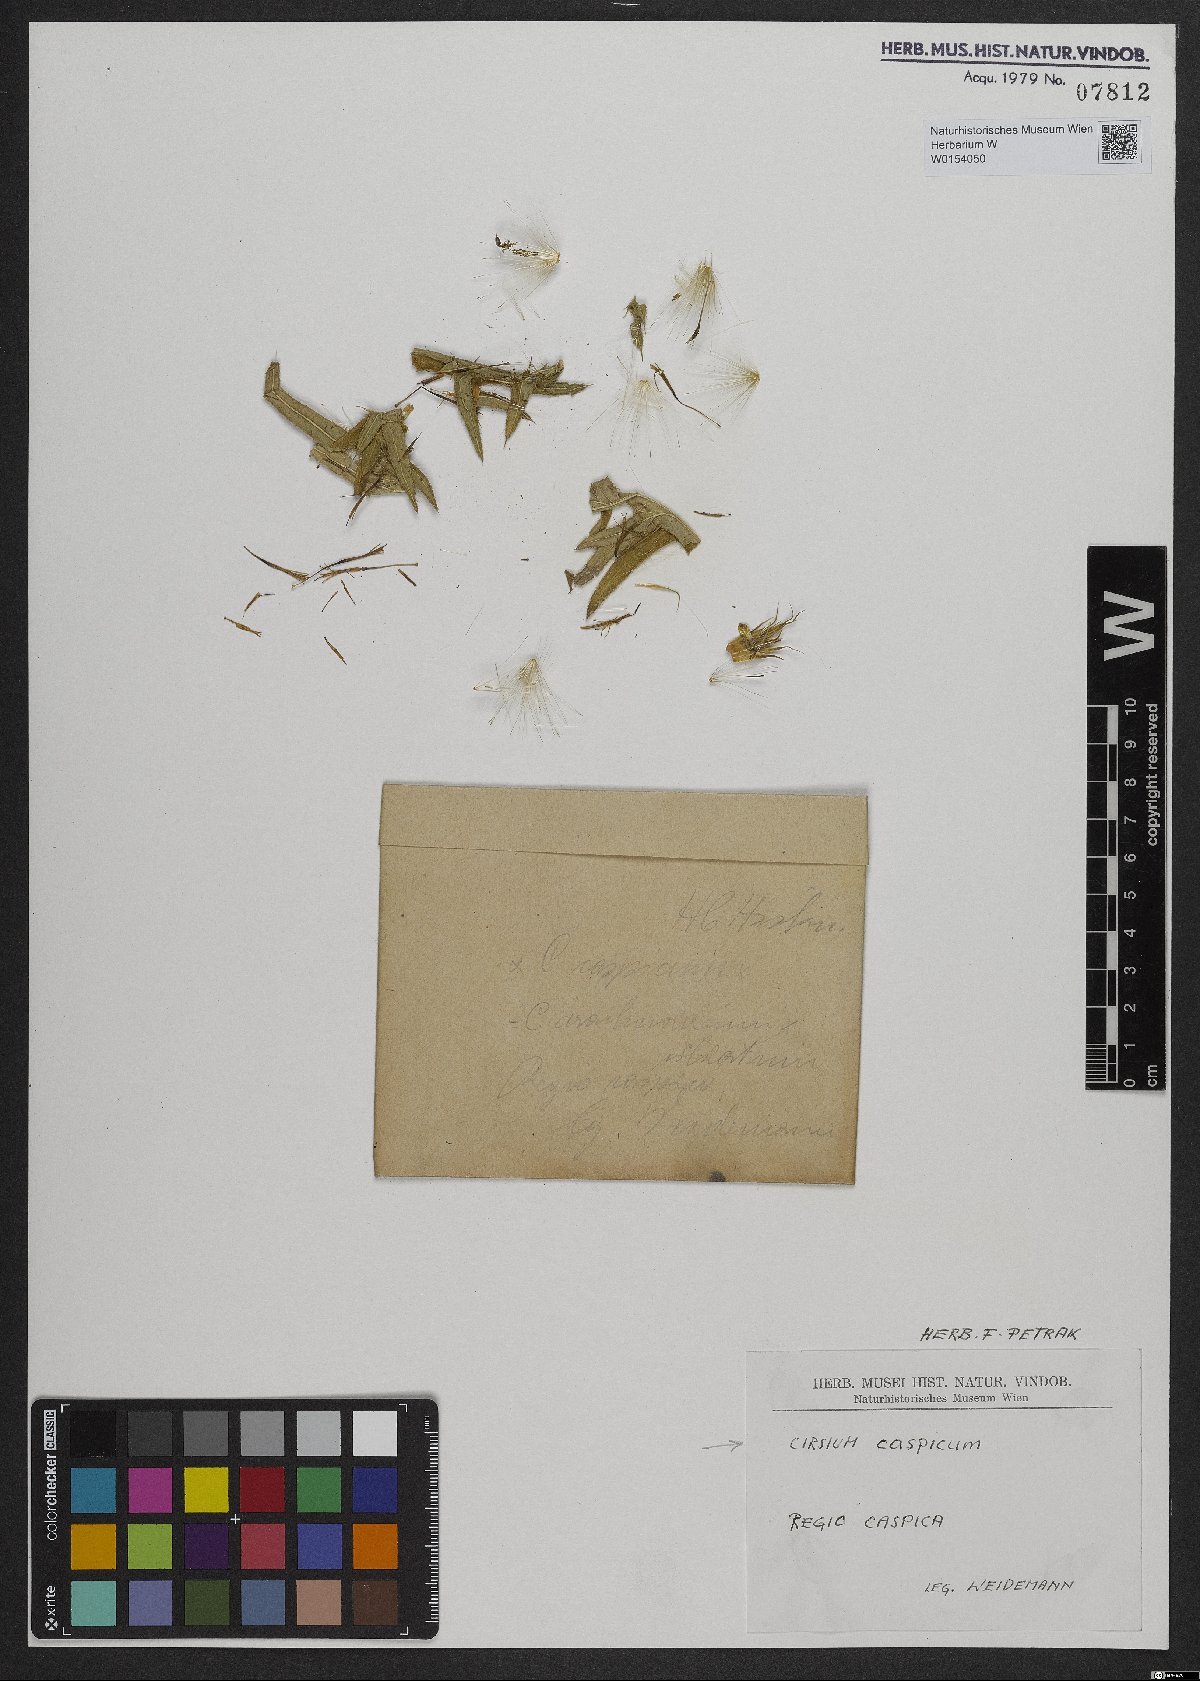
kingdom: Plantae
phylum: Tracheophyta
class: Magnoliopsida
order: Asterales
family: Asteraceae
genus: Cirsium
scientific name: Cirsium caspicum
